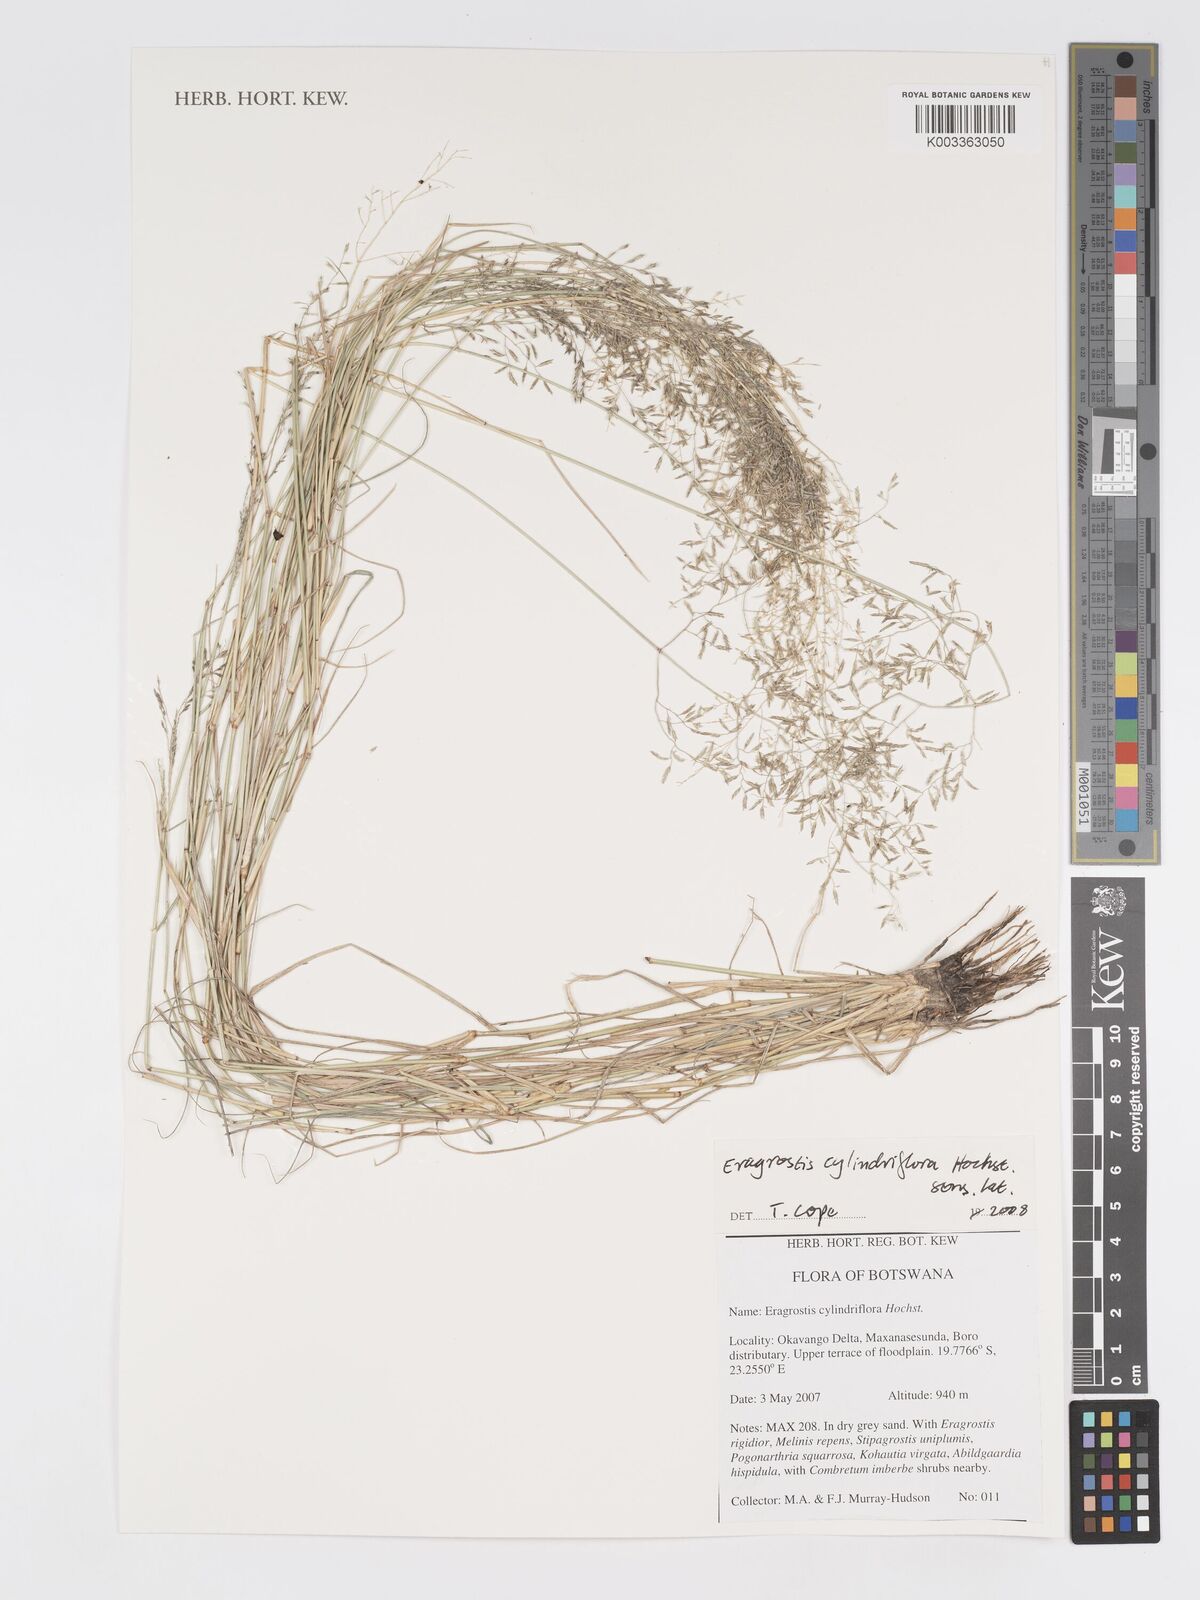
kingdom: Plantae
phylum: Tracheophyta
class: Liliopsida
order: Poales
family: Poaceae
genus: Eragrostis
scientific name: Eragrostis cylindriflora
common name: Cylinderflower lovegrass
